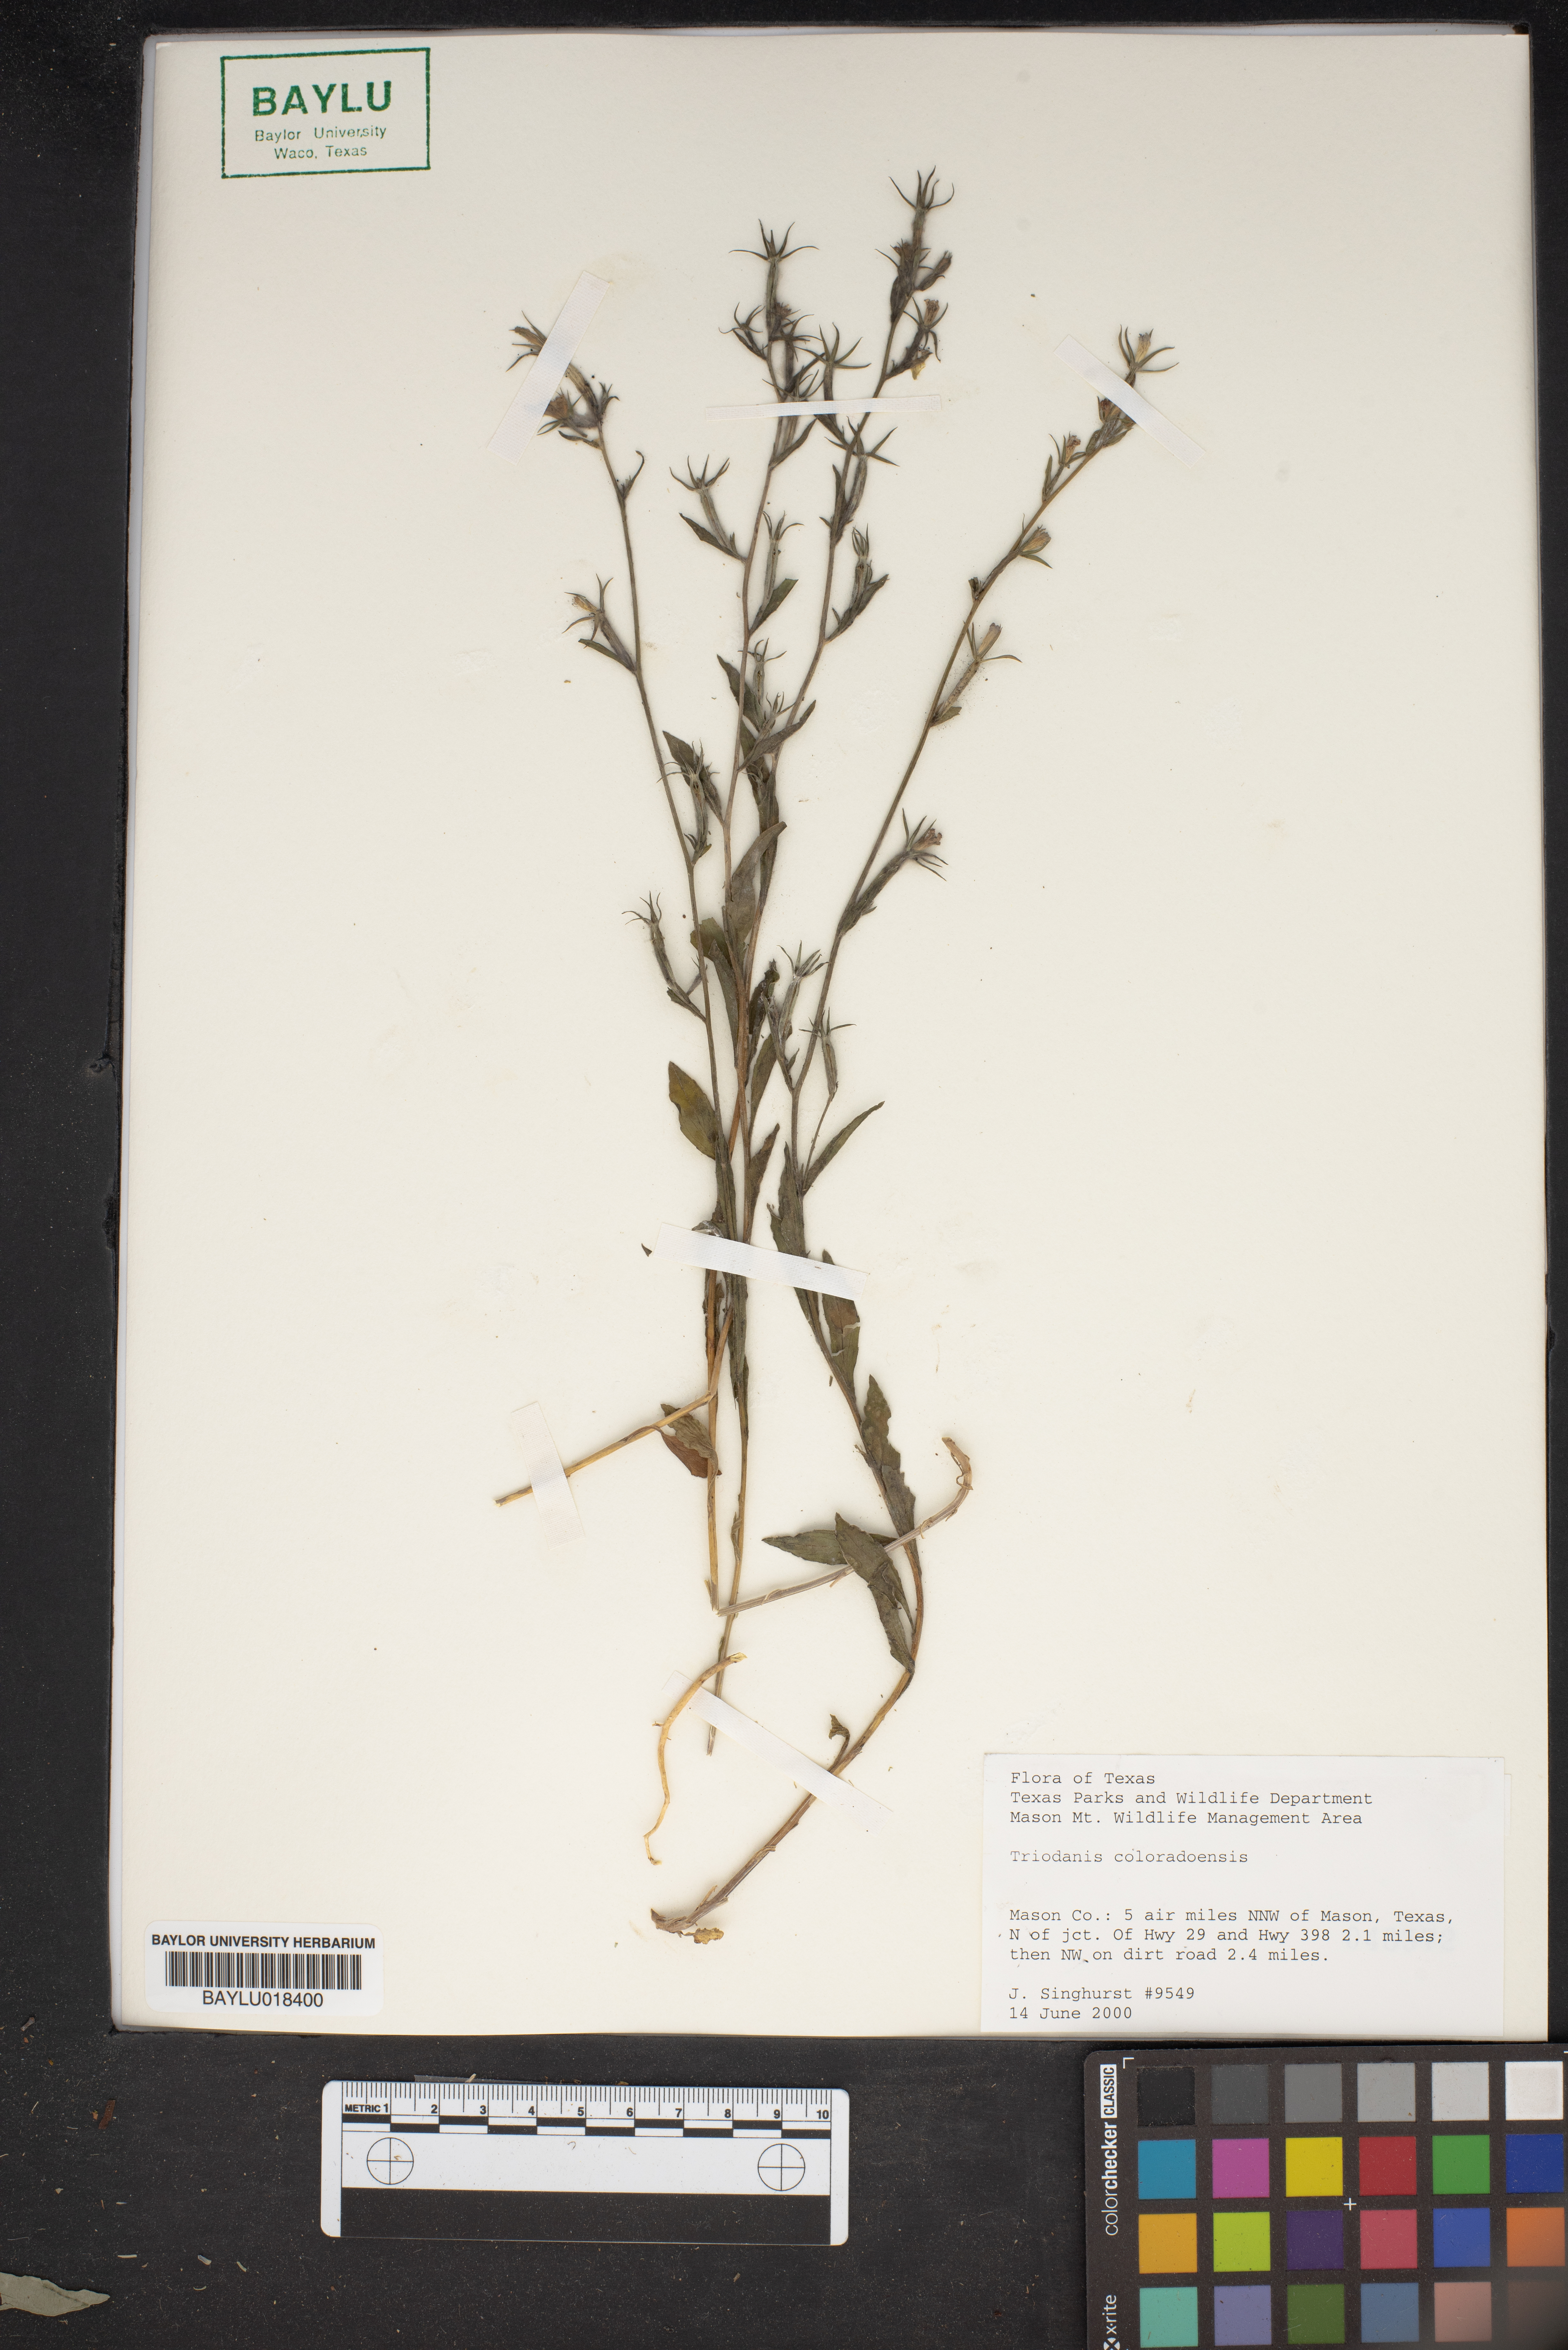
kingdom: Plantae
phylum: Tracheophyta
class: Magnoliopsida
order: Asterales
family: Campanulaceae
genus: Triodanis
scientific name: Triodanis coloradoensis
